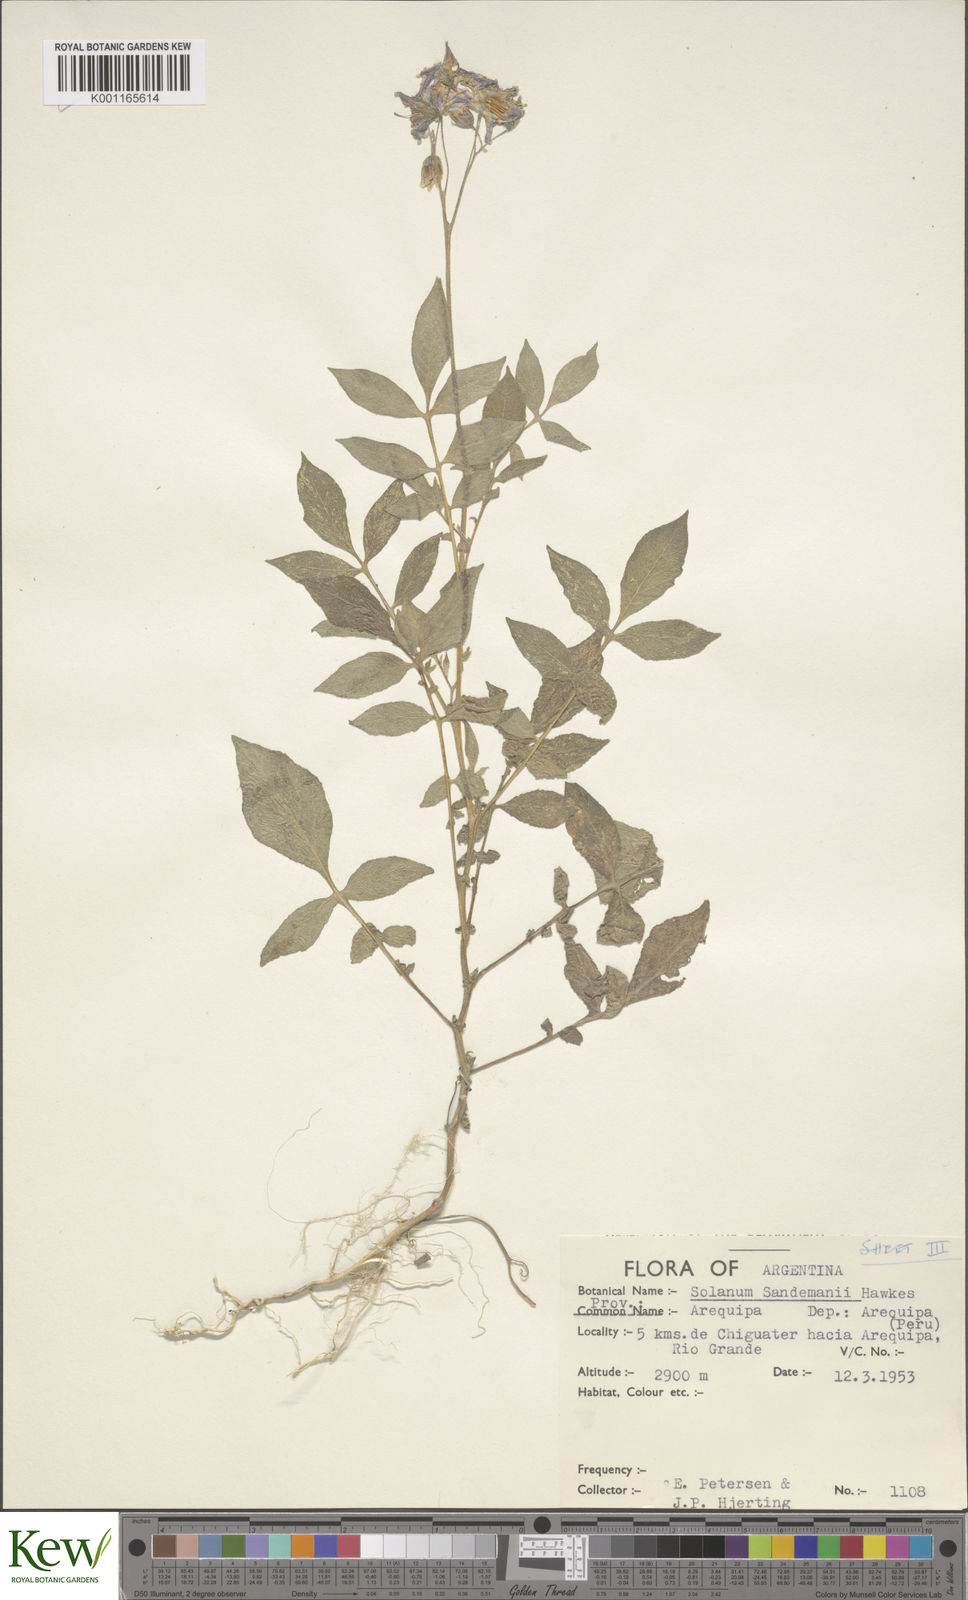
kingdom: Plantae
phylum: Tracheophyta
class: Magnoliopsida
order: Solanales
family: Solanaceae
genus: Solanum
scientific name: Solanum medians
